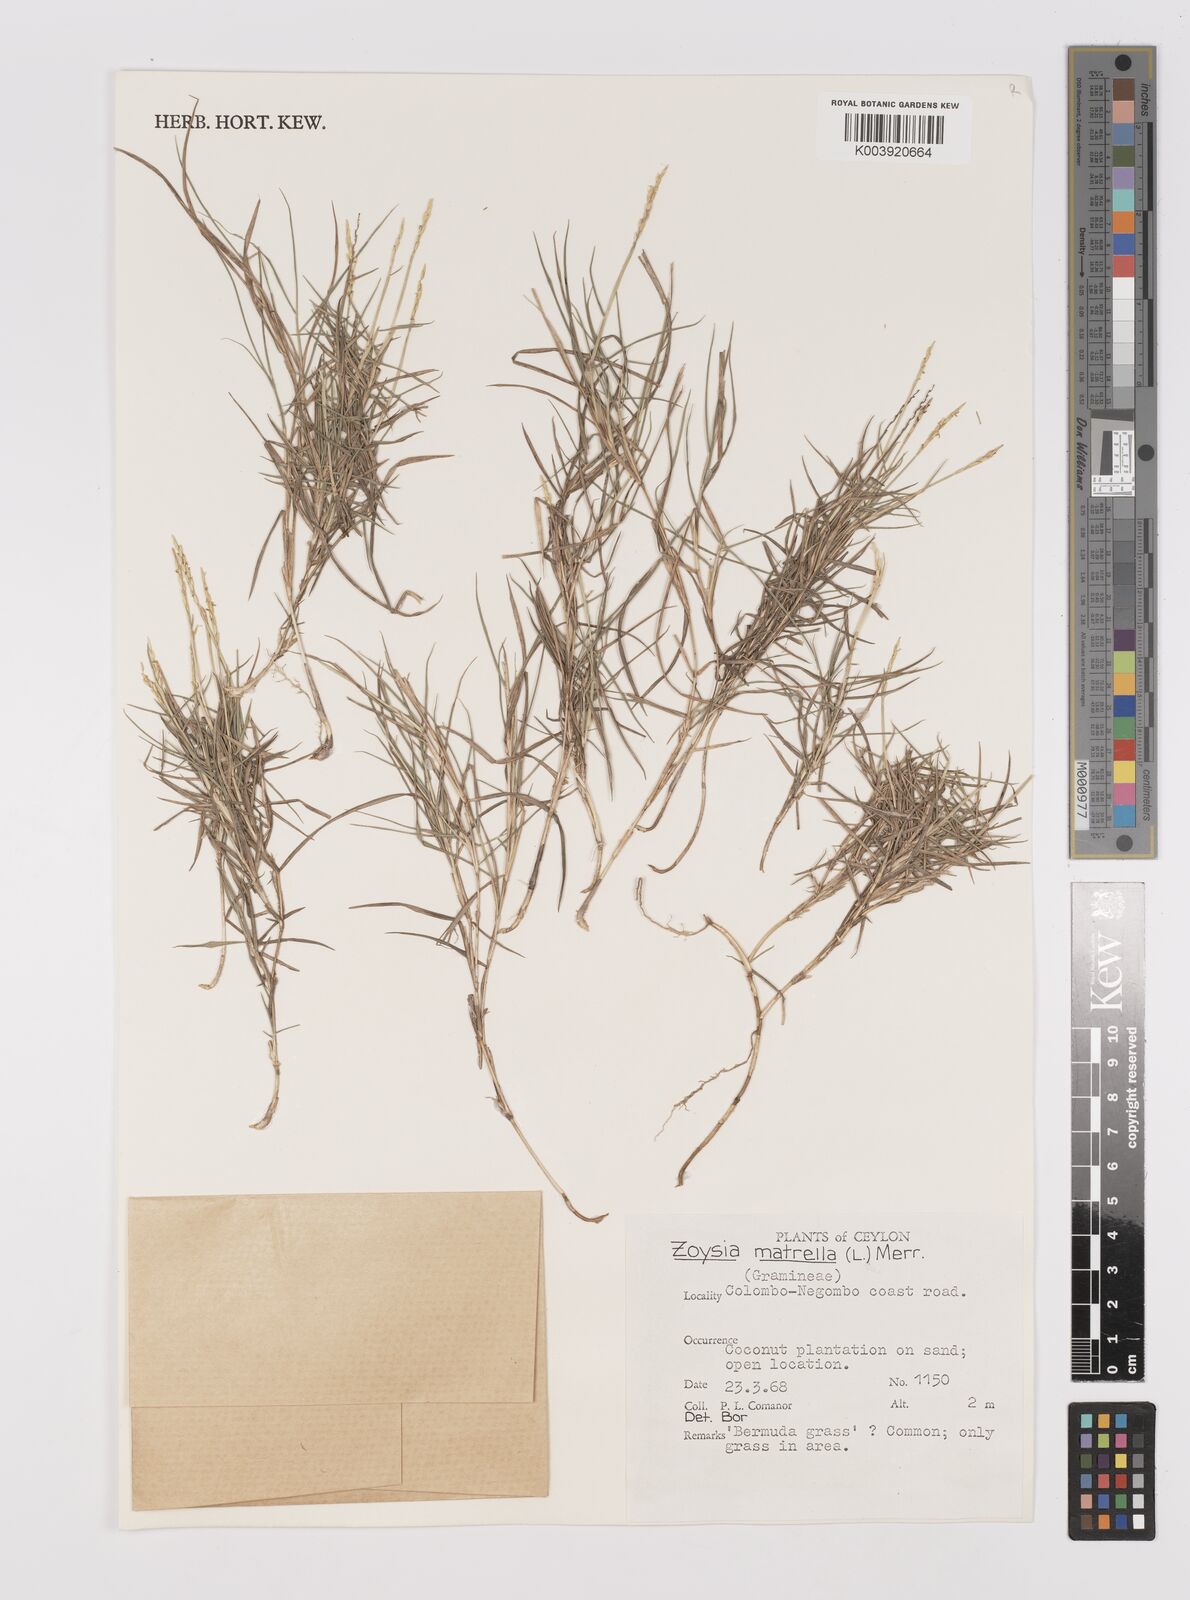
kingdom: Plantae
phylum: Tracheophyta
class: Liliopsida
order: Poales
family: Poaceae
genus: Zoysia
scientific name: Zoysia matrella
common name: Manila grass
